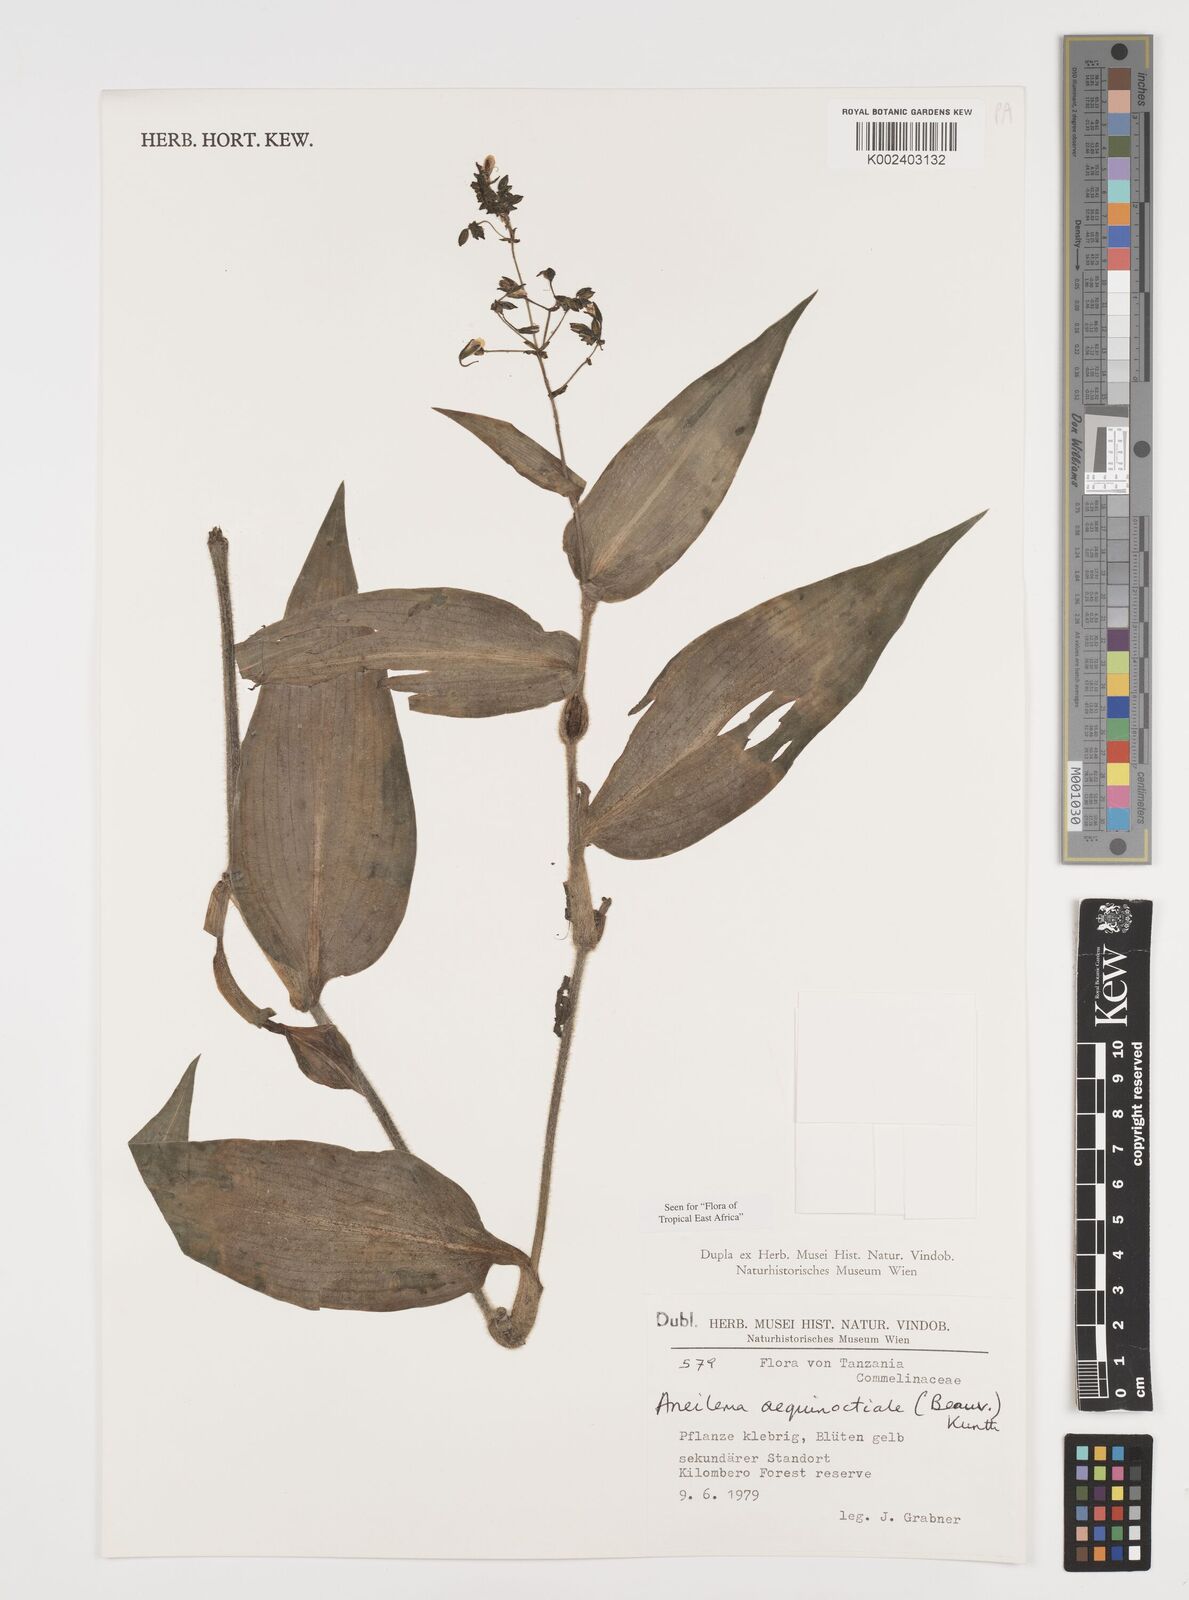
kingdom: Plantae
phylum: Tracheophyta
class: Liliopsida
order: Commelinales
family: Commelinaceae
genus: Aneilema
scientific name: Aneilema aequinoctiale
